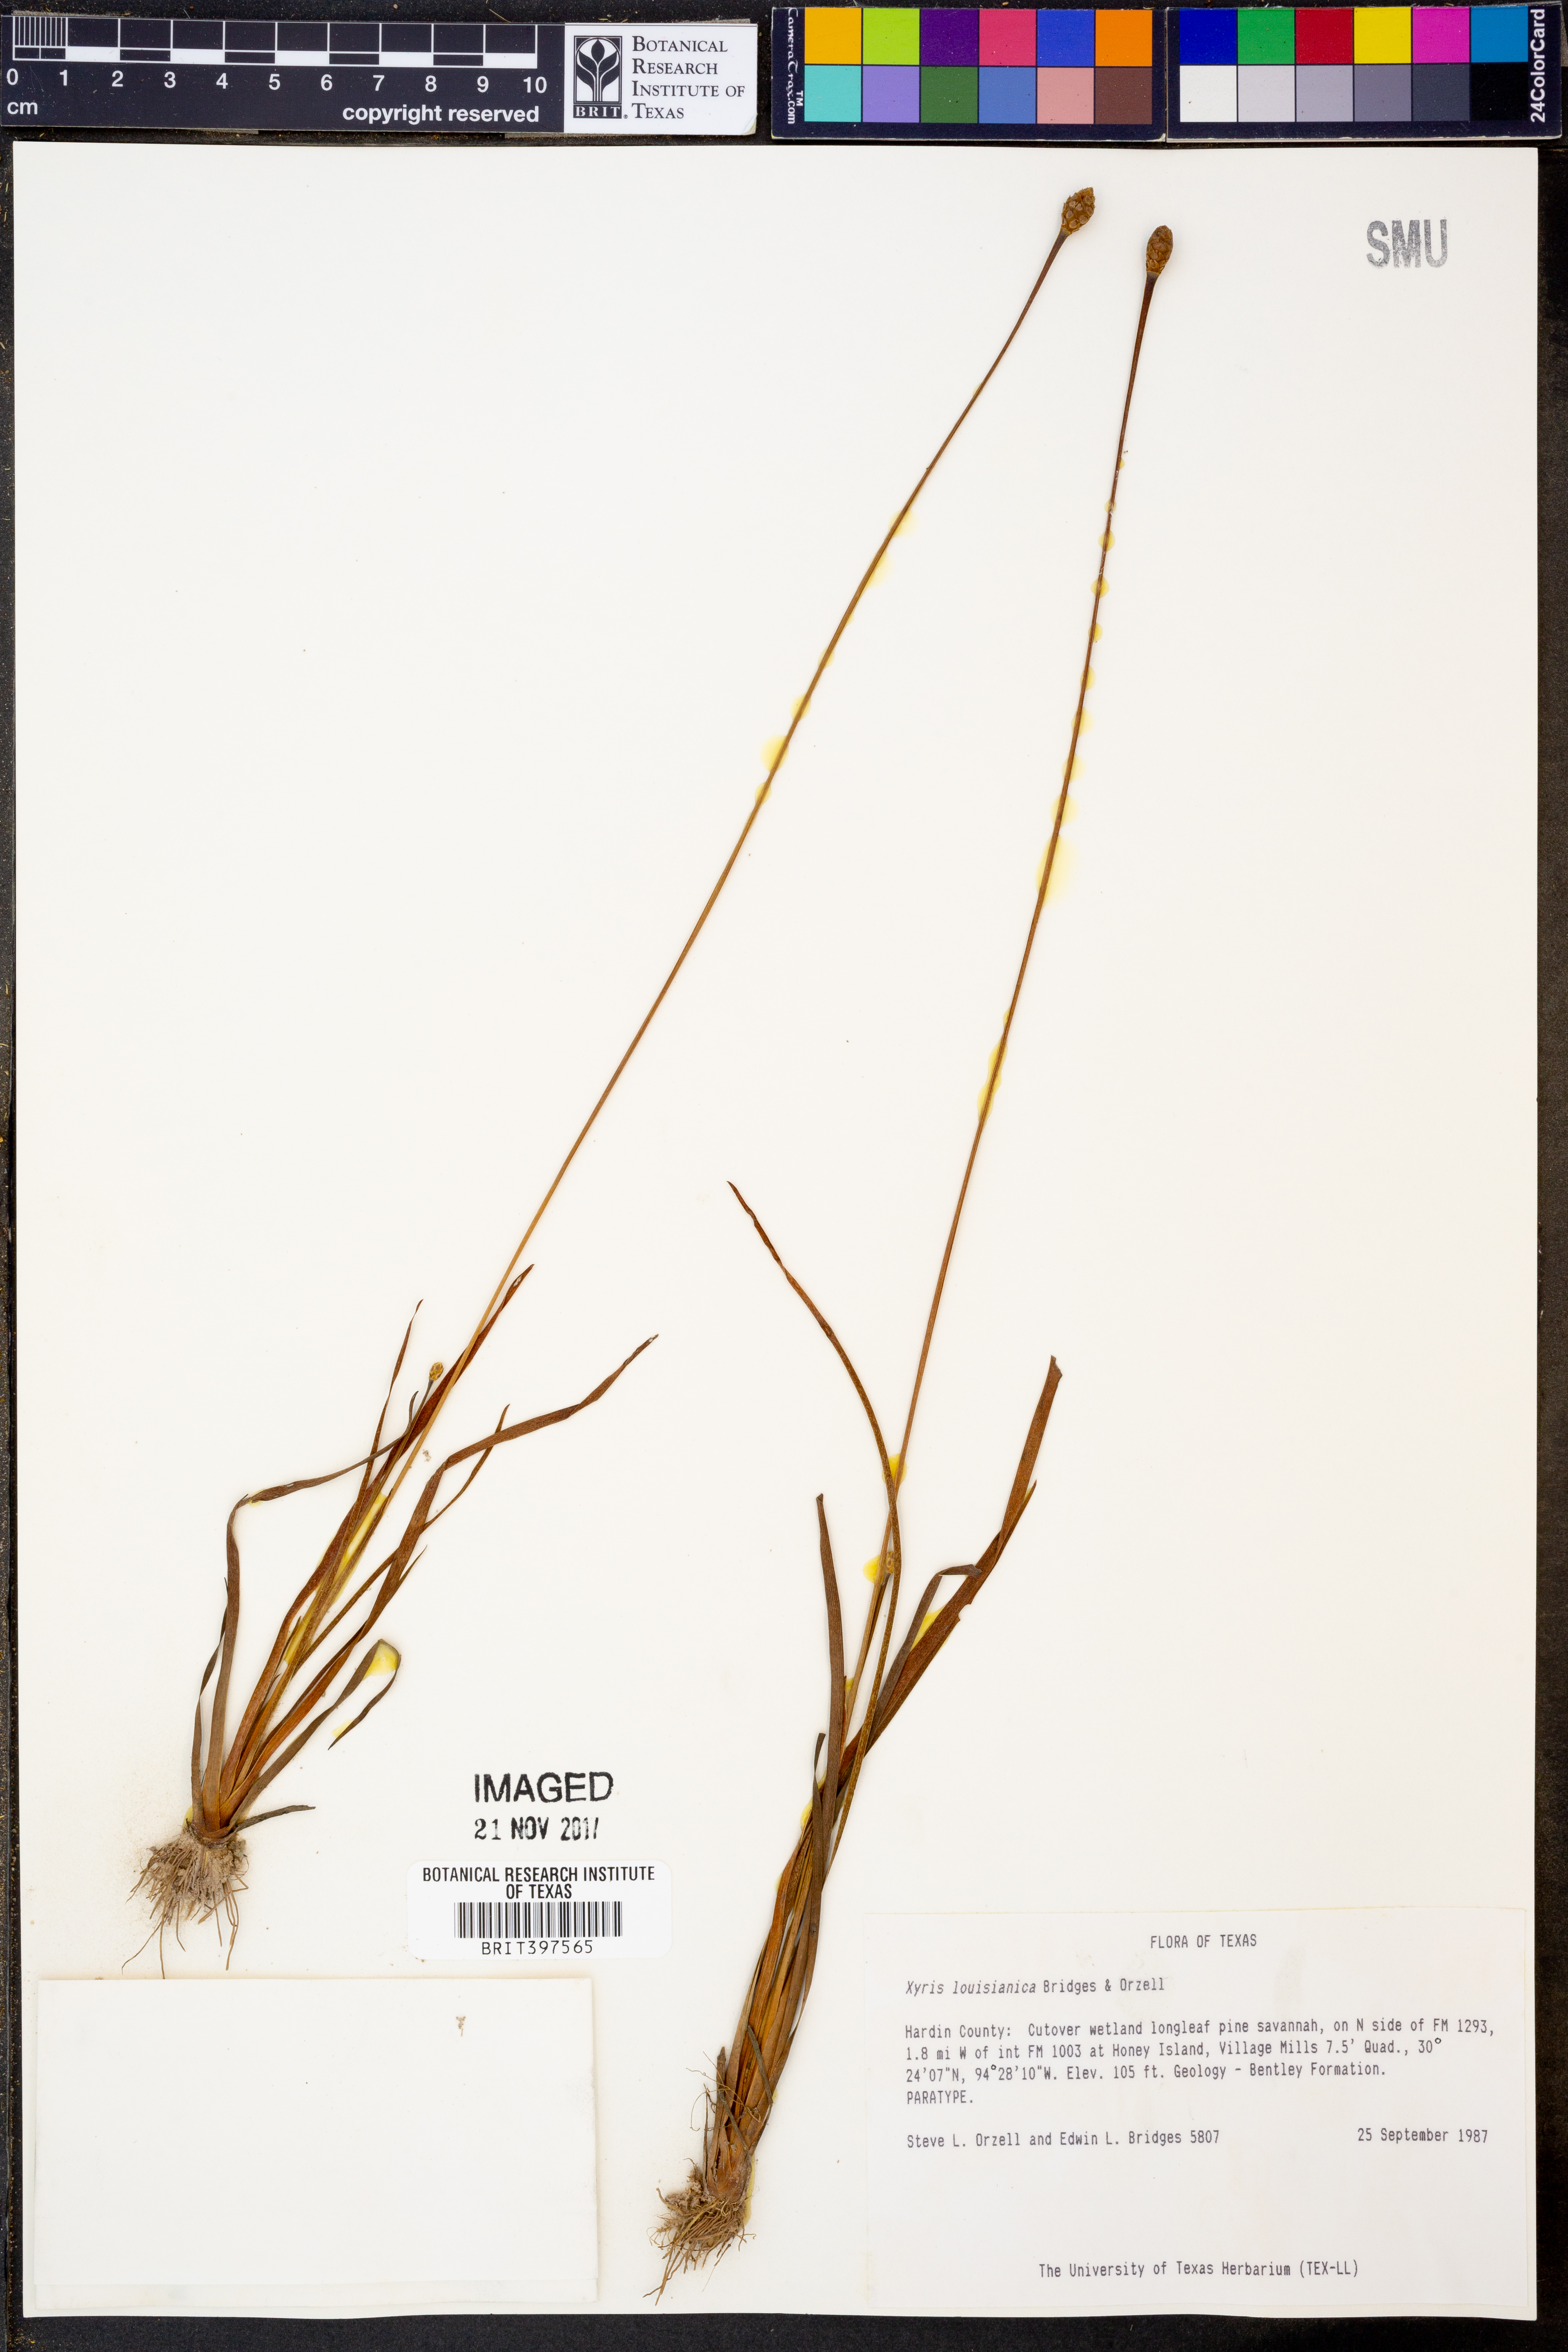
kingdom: Plantae
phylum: Tracheophyta
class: Liliopsida
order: Poales
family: Xyridaceae
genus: Xyris
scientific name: Xyris stricta
